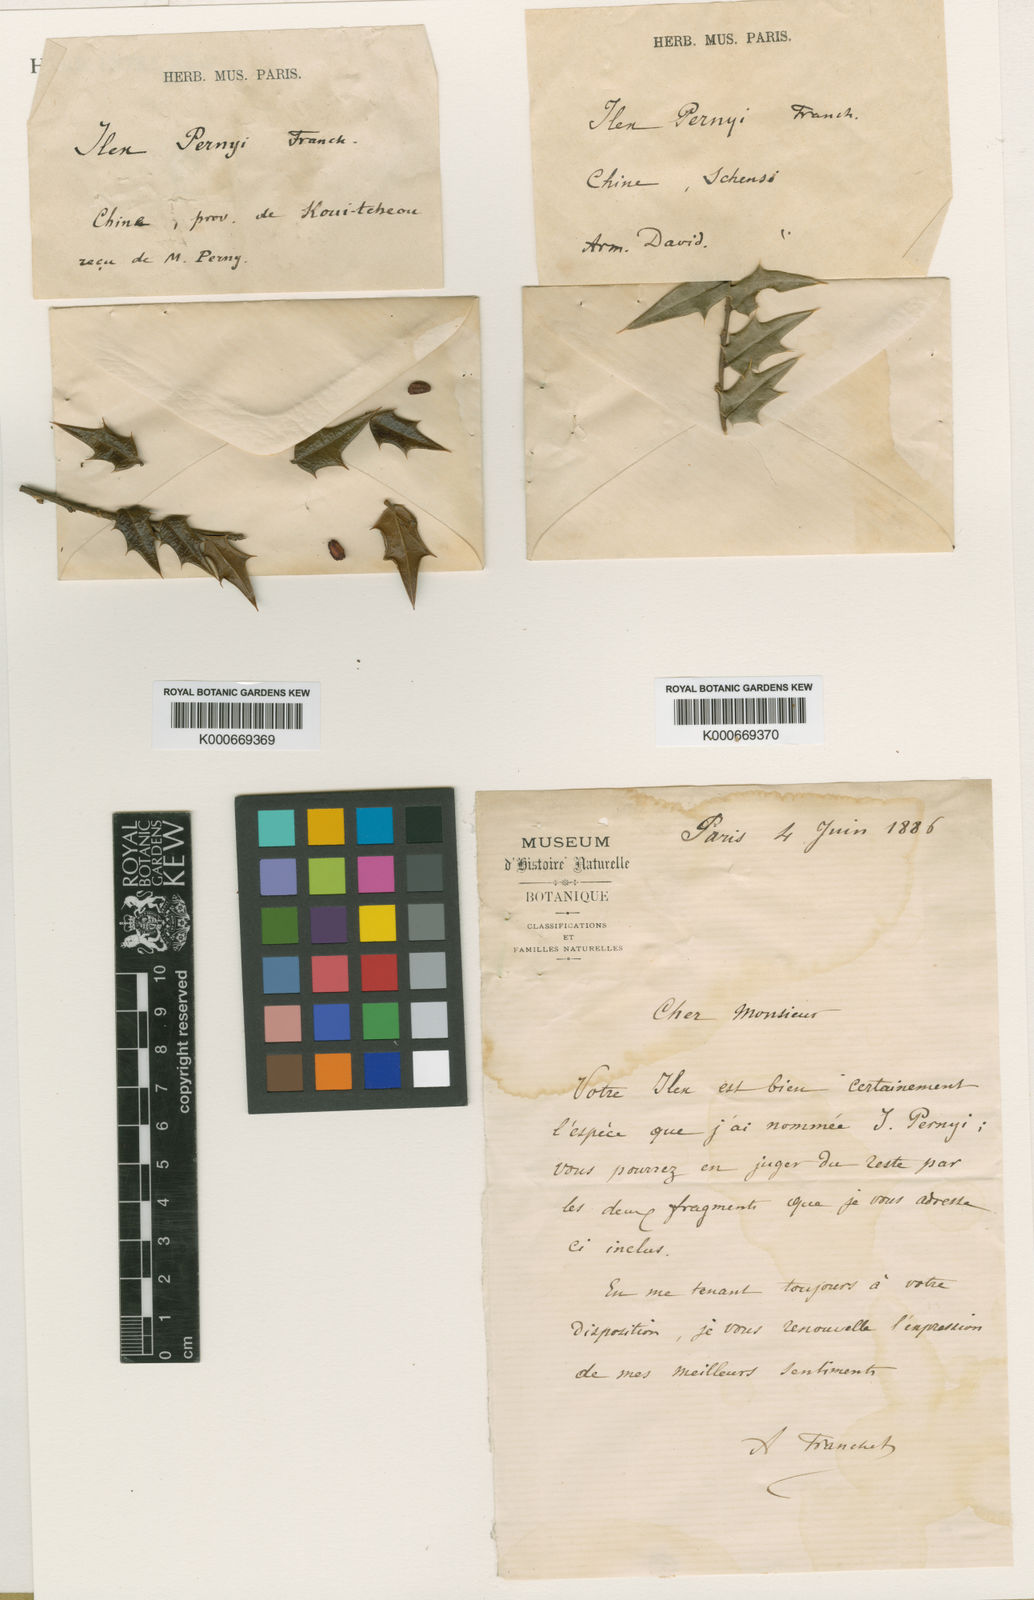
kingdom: Plantae
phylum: Tracheophyta
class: Magnoliopsida
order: Aquifoliales
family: Aquifoliaceae
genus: Ilex
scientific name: Ilex pernyi
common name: Perny's holly
